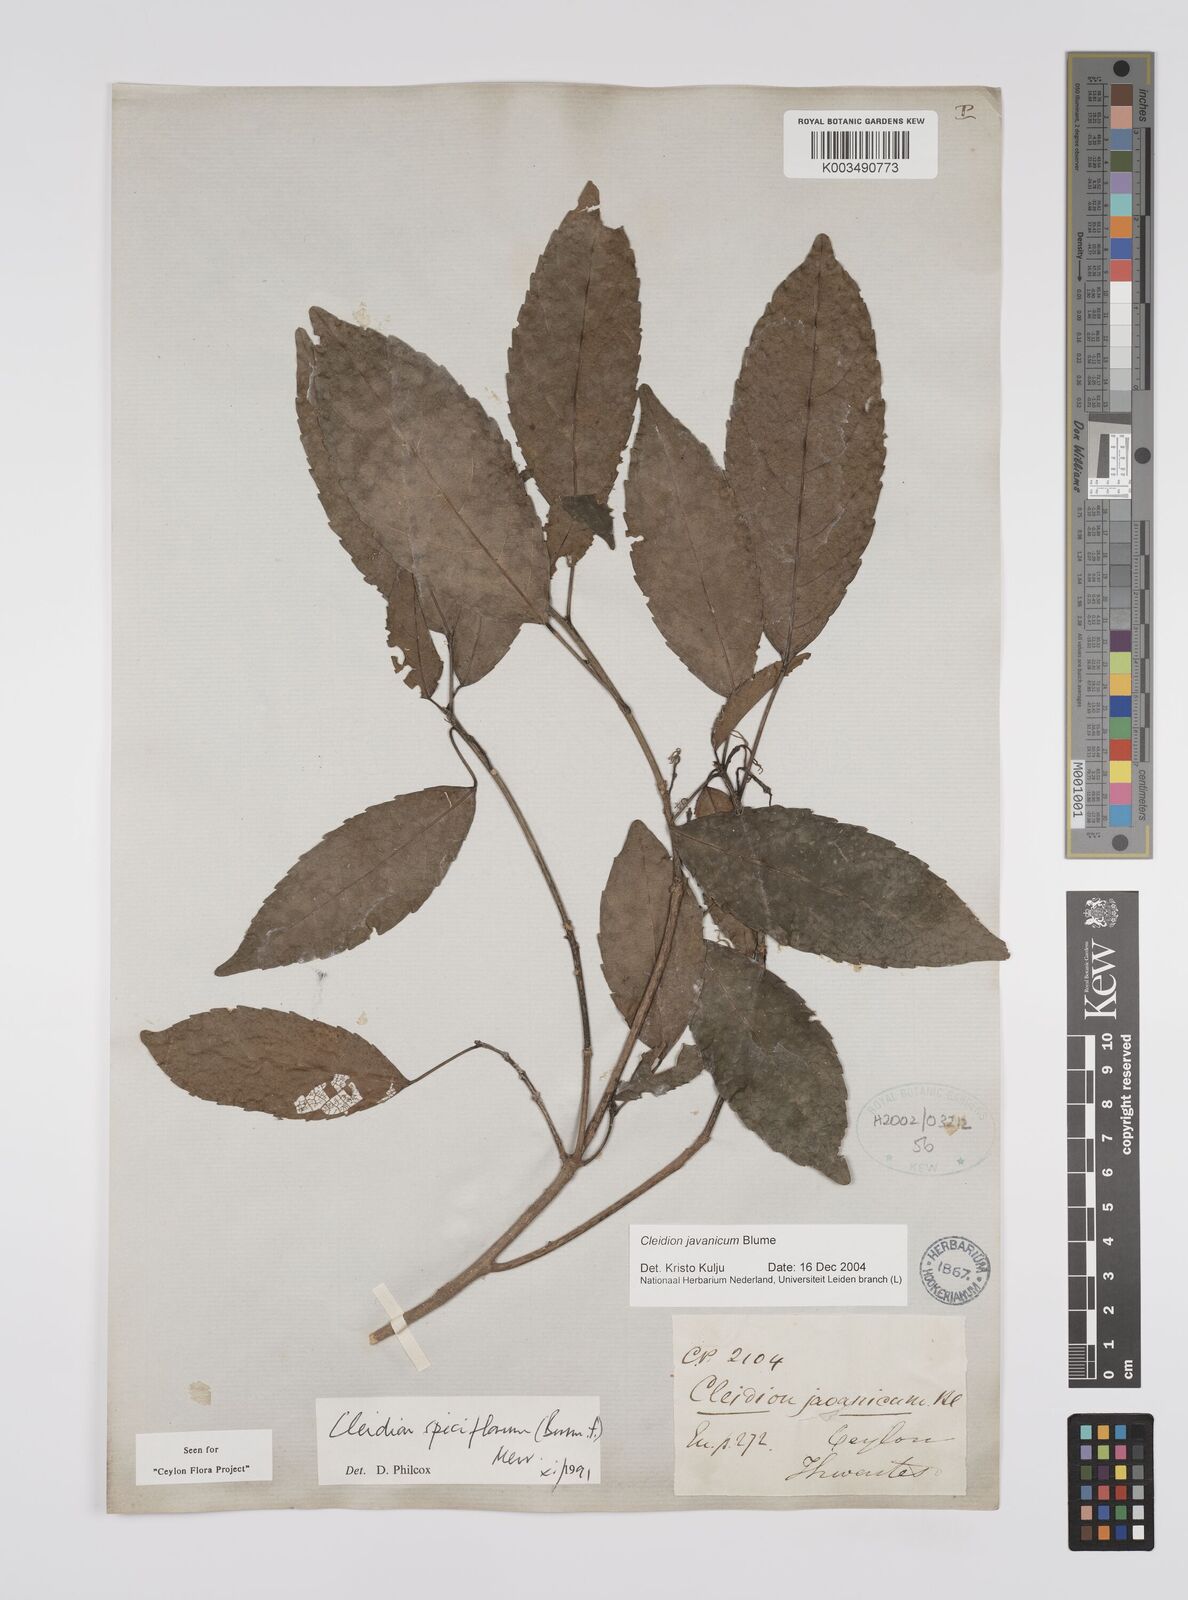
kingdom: Plantae
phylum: Tracheophyta
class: Magnoliopsida
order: Malpighiales
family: Euphorbiaceae
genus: Cleidion
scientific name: Cleidion javanicum
